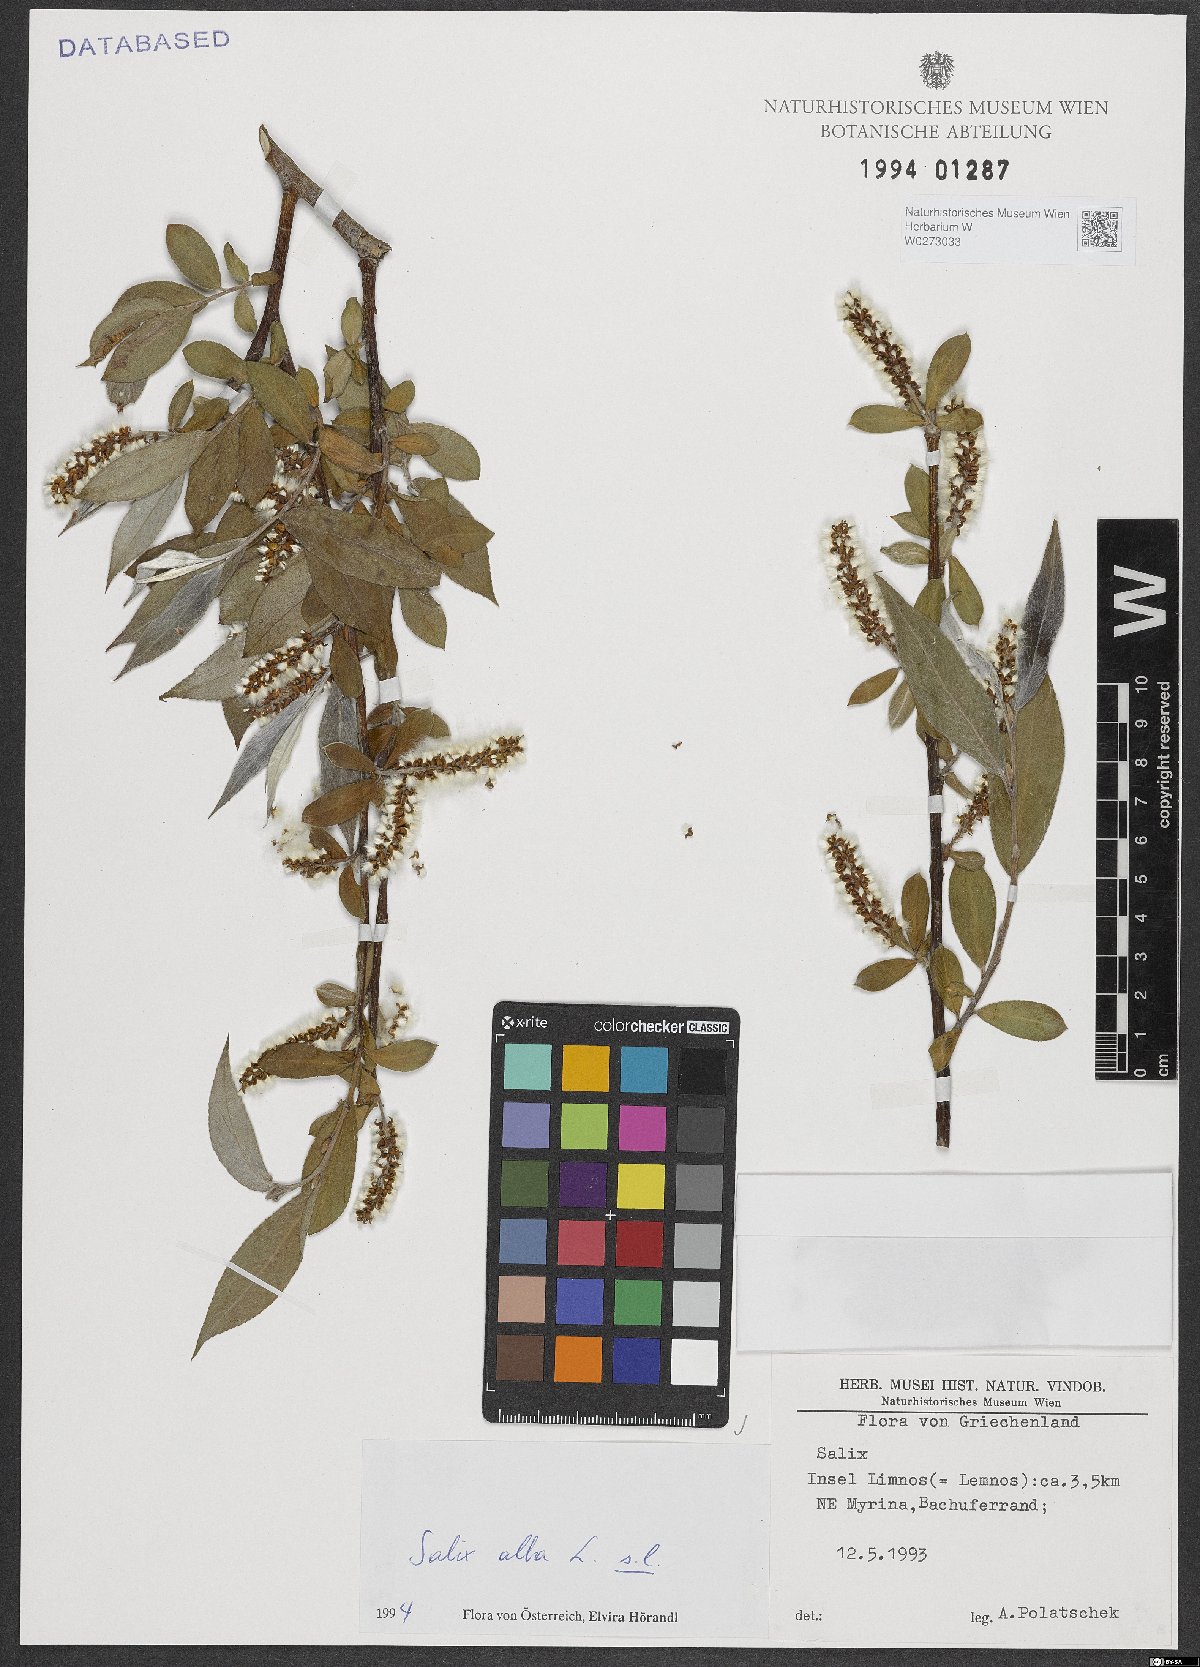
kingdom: Plantae
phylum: Tracheophyta
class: Magnoliopsida
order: Malpighiales
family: Salicaceae
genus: Salix
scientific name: Salix alba
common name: White willow
